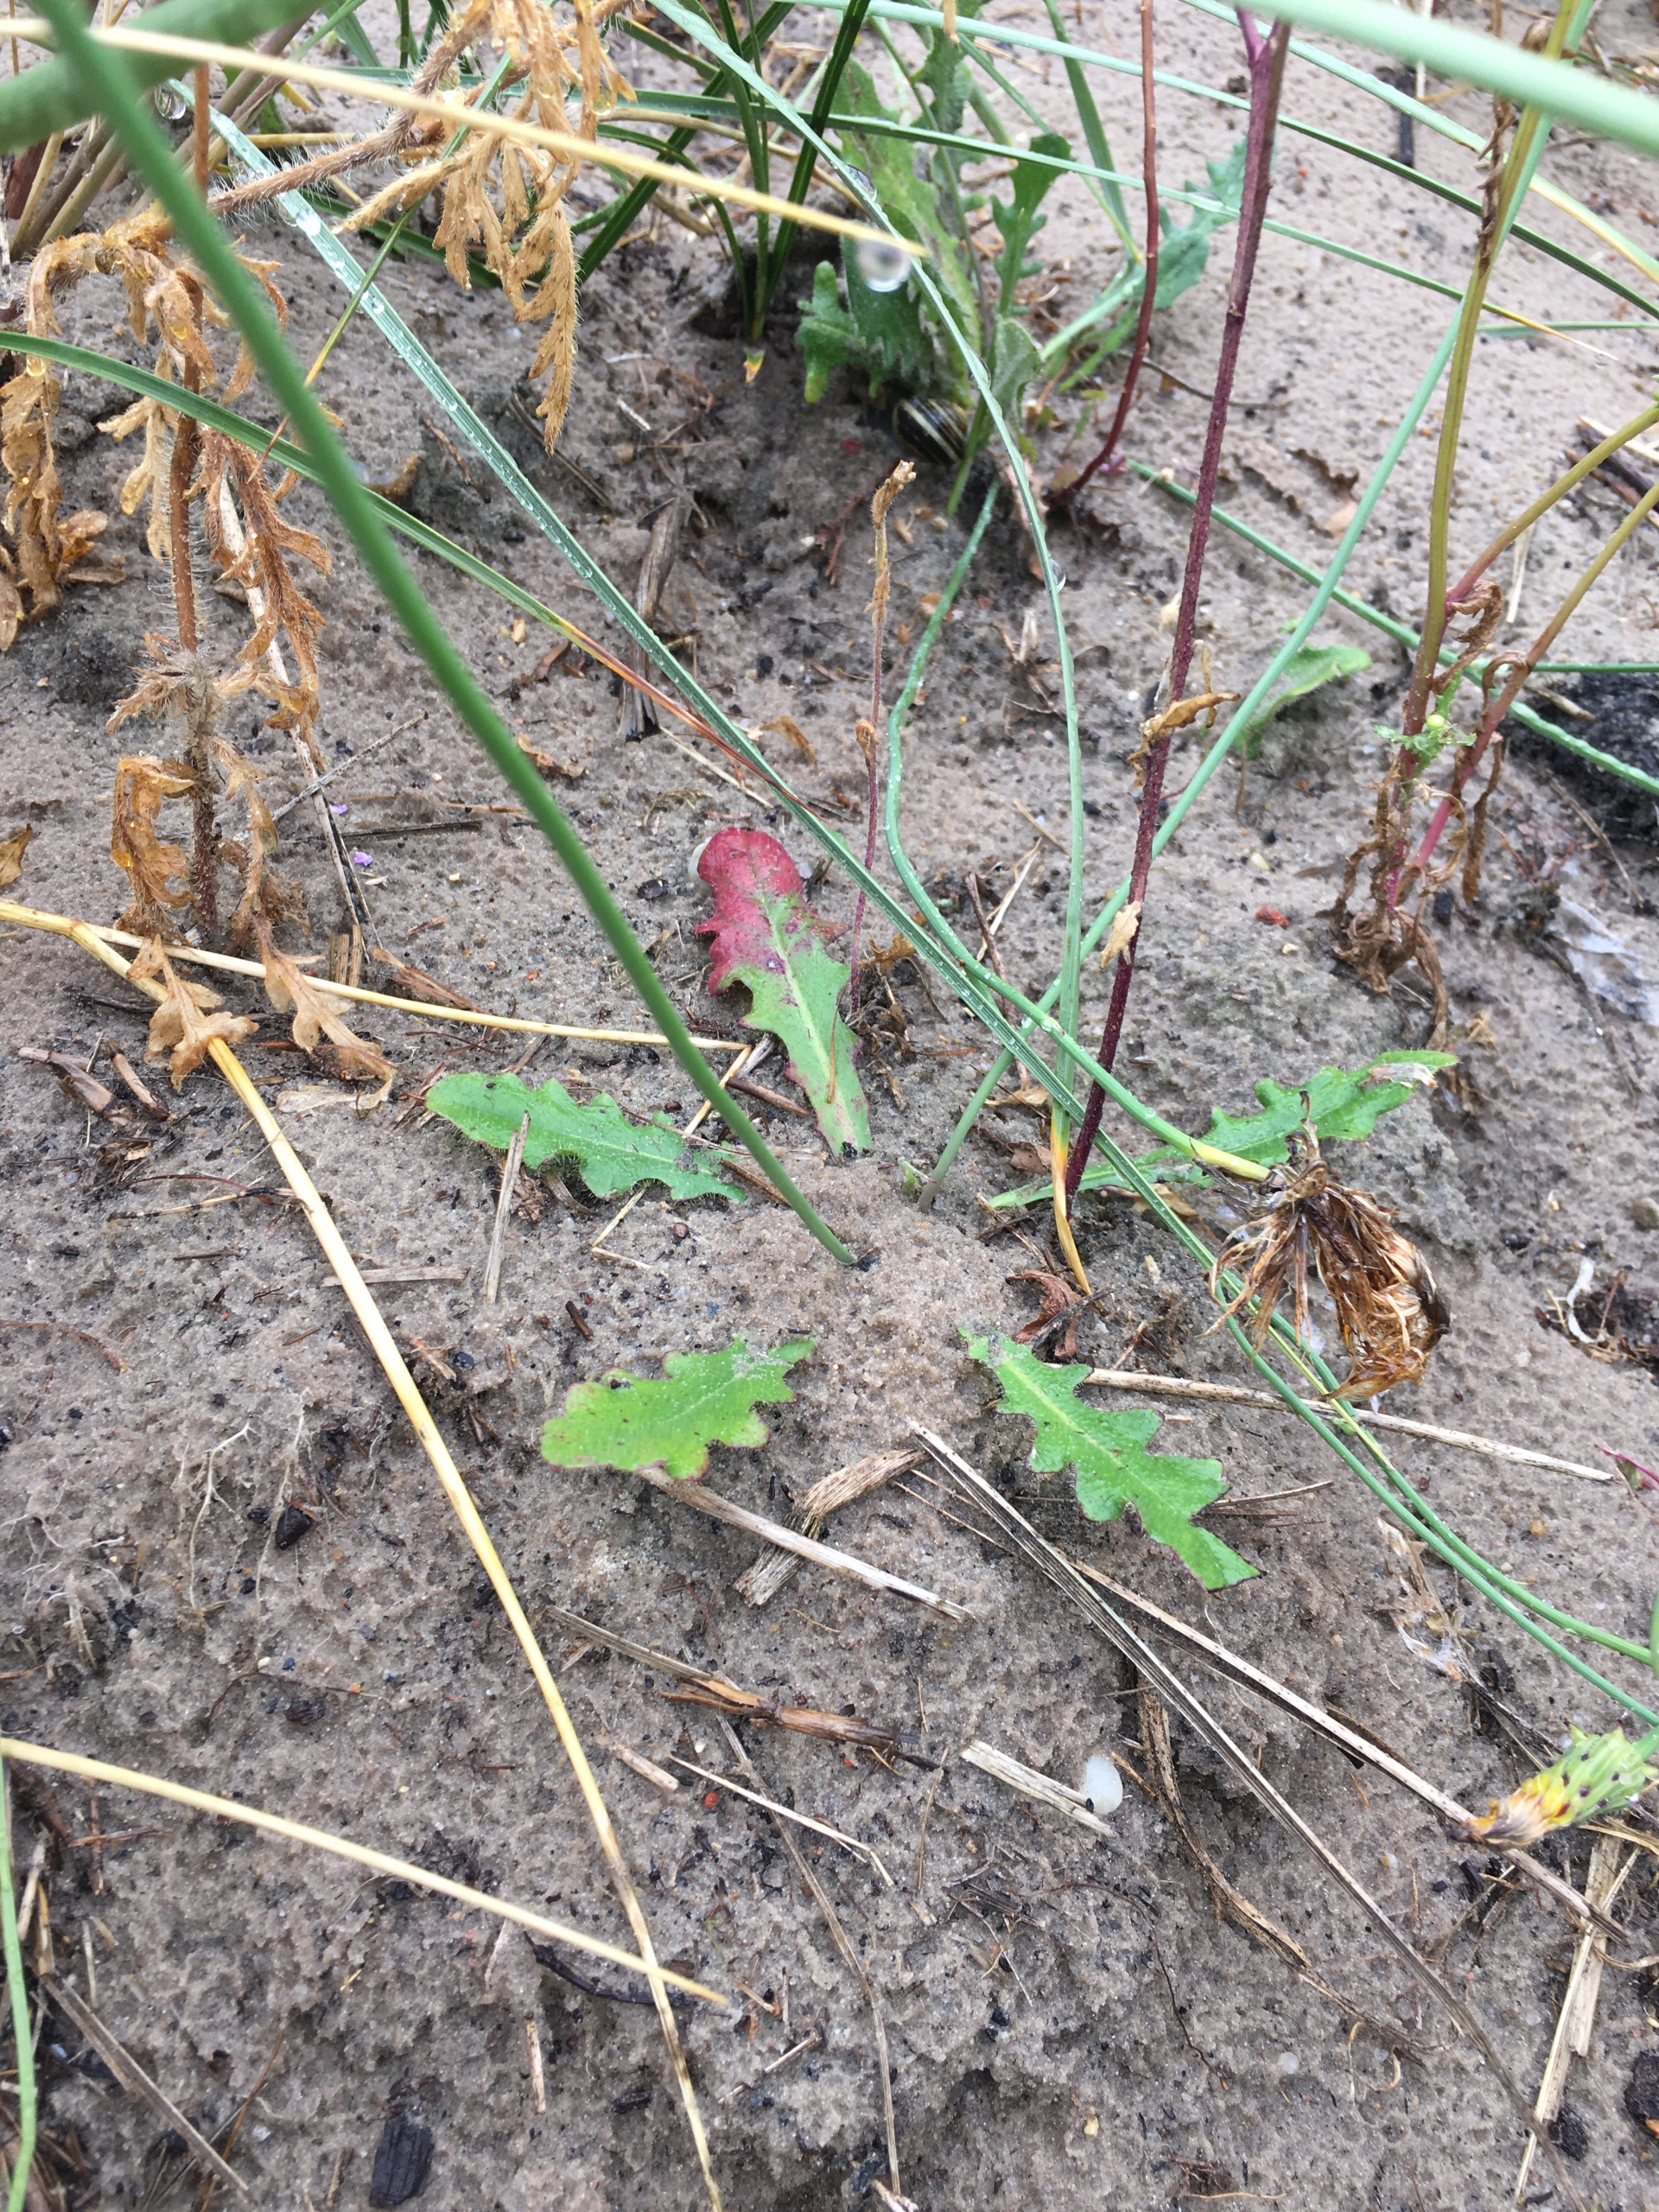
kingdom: Plantae
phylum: Tracheophyta
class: Magnoliopsida
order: Asterales
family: Asteraceae
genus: Hypochaeris
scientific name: Hypochaeris radicata
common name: Almindelig kongepen
